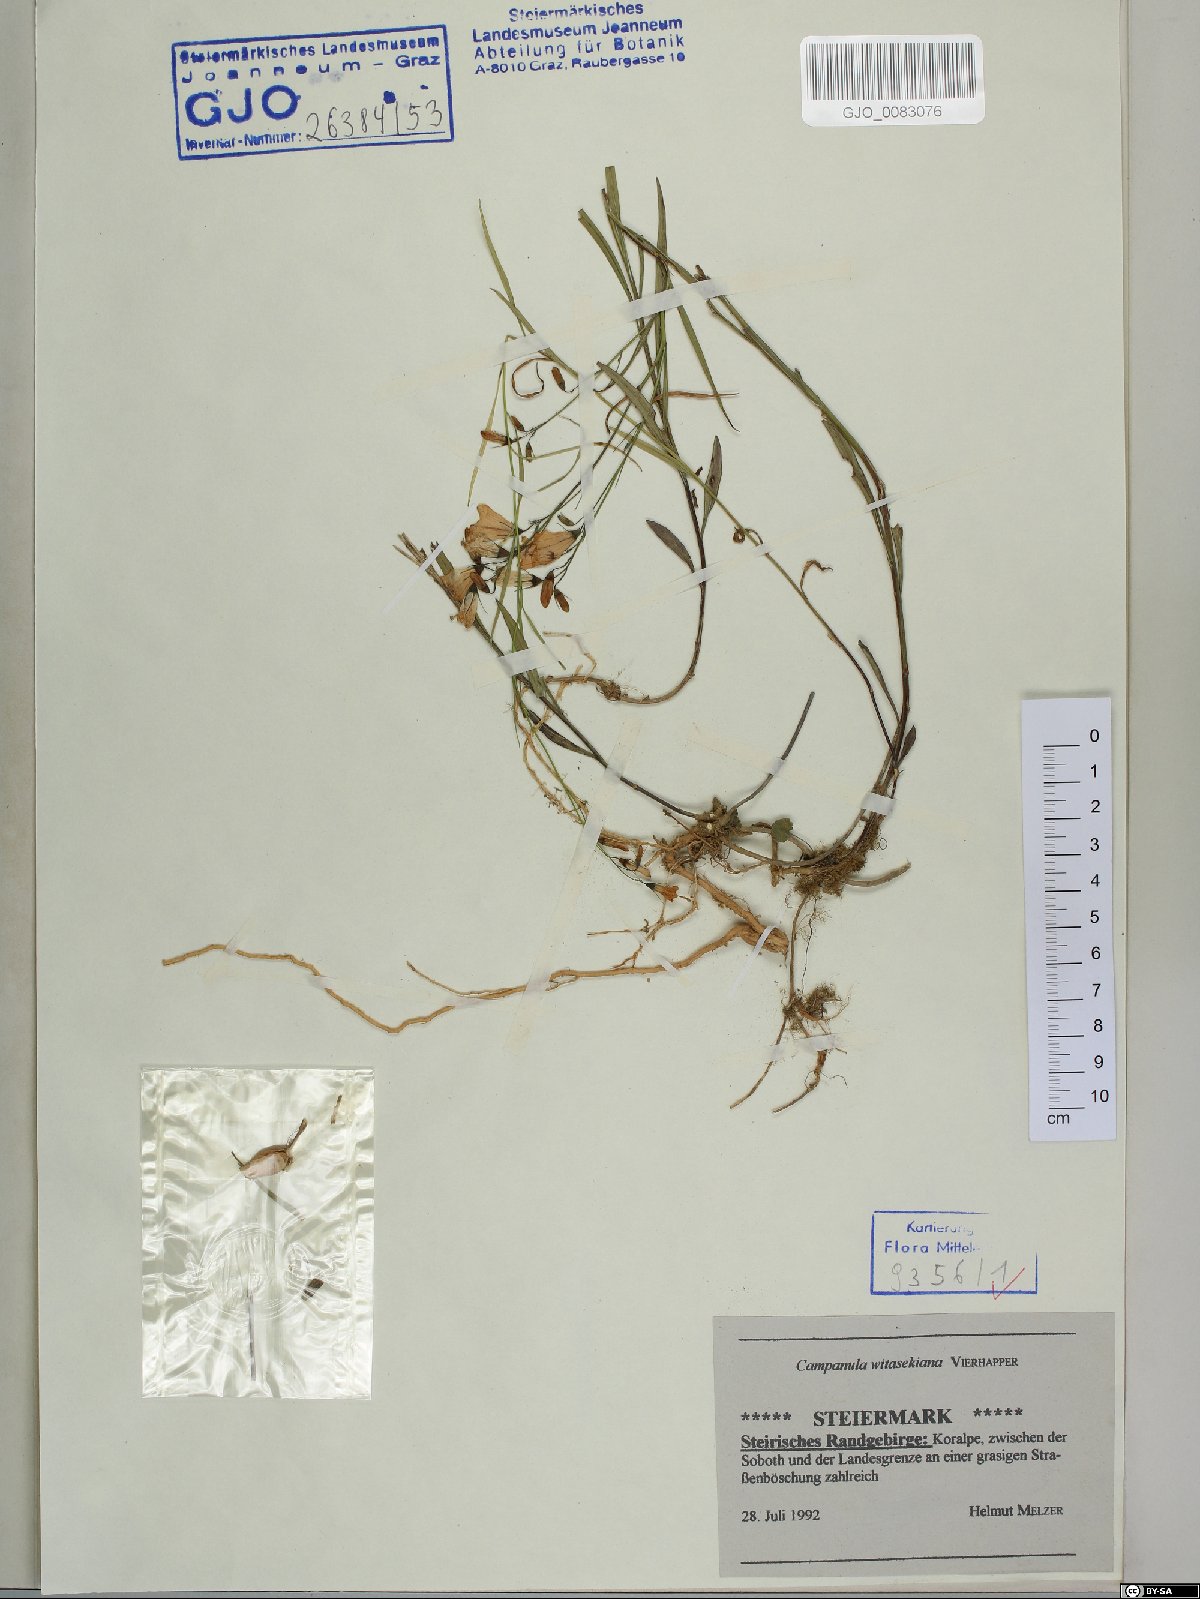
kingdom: Plantae
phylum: Tracheophyta
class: Magnoliopsida
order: Asterales
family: Campanulaceae
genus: Campanula
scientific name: Campanula witasekiana
